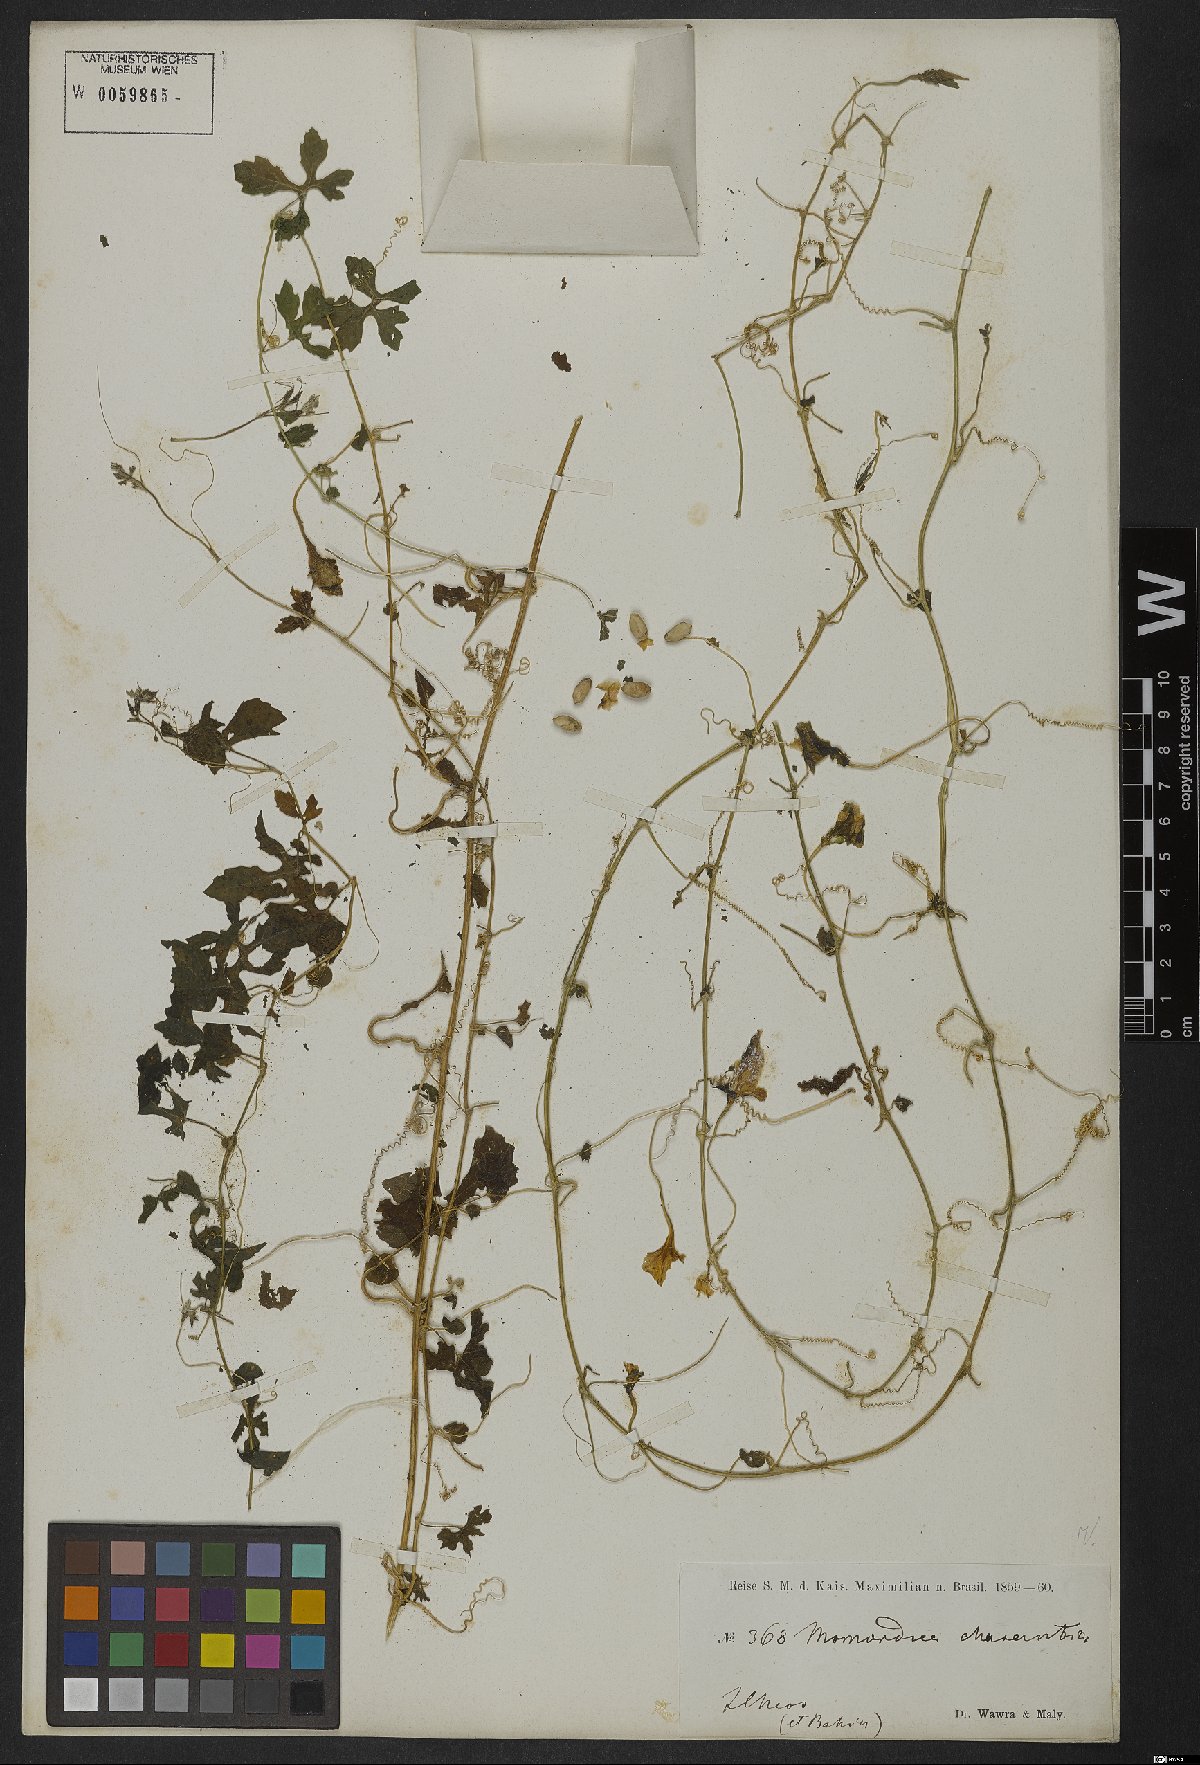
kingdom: Plantae
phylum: Tracheophyta
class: Magnoliopsida
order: Cucurbitales
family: Cucurbitaceae
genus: Momordica
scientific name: Momordica charantia
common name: Balsampear
